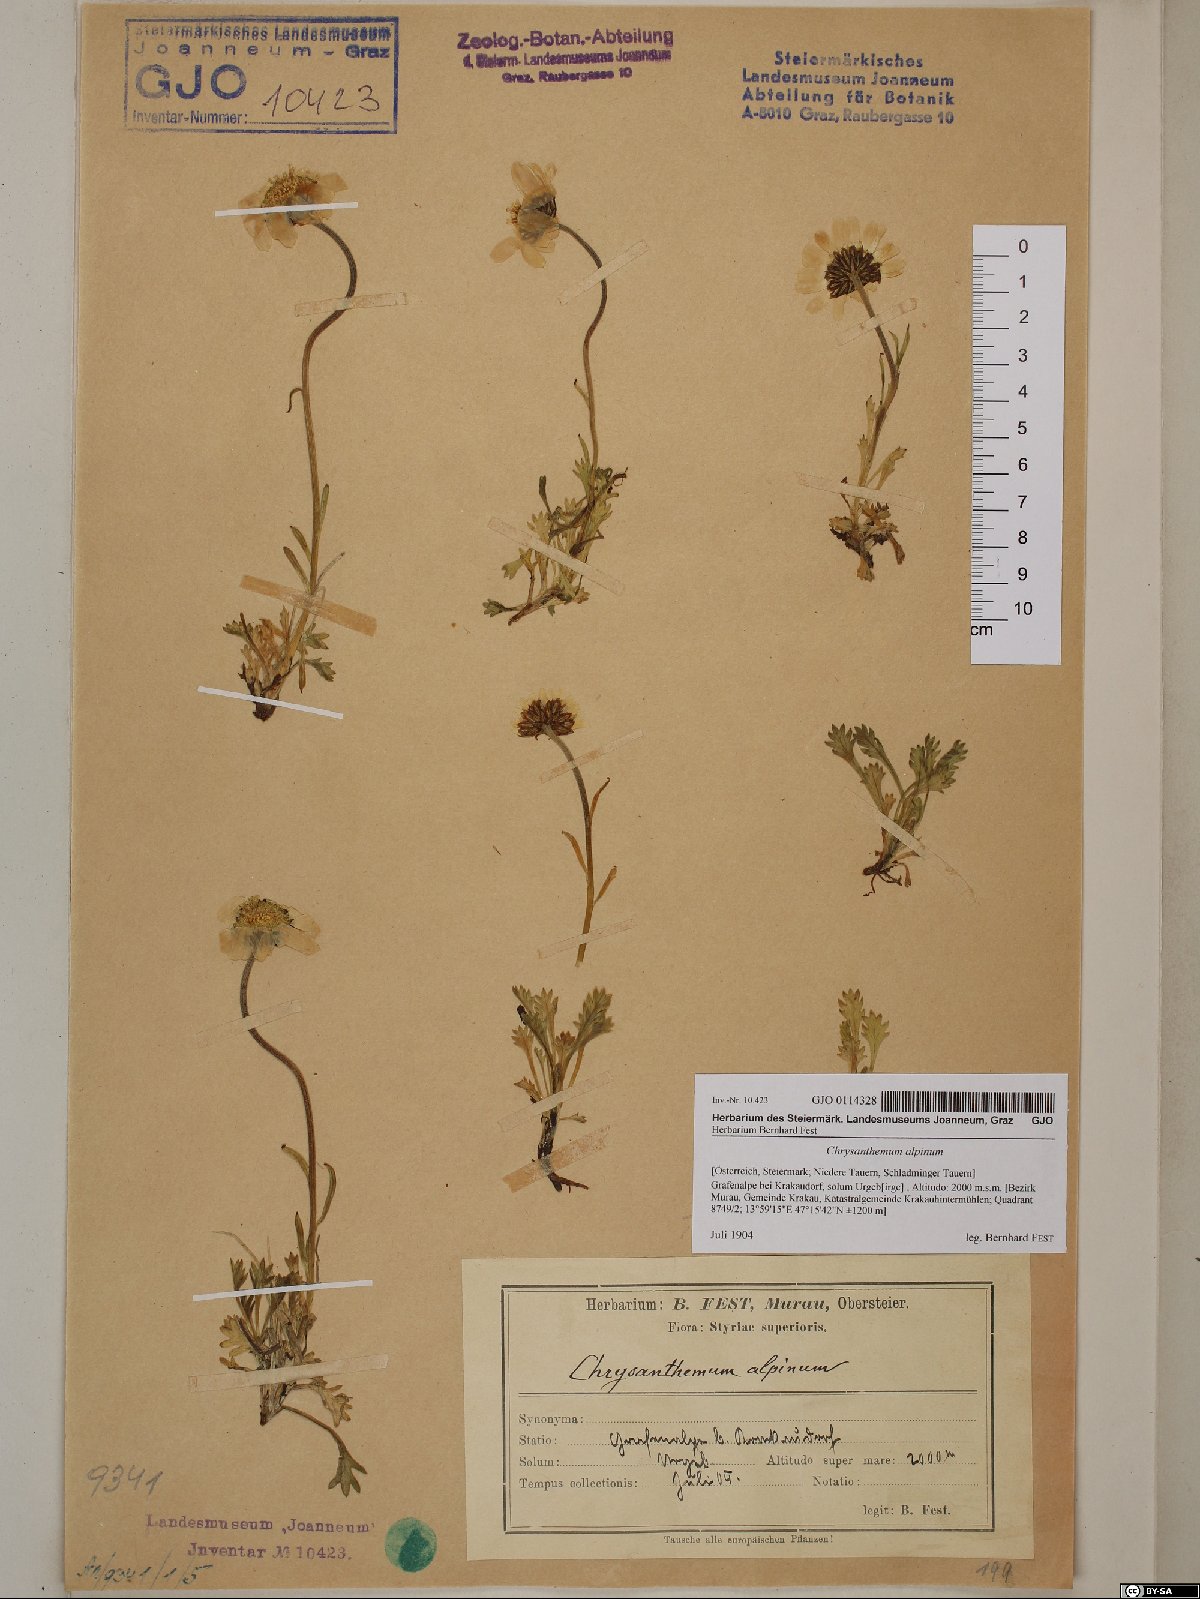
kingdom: Plantae
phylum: Tracheophyta
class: Magnoliopsida
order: Asterales
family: Asteraceae
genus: Leucanthemopsis
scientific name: Leucanthemopsis alpina
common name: Alpine moon daisy
